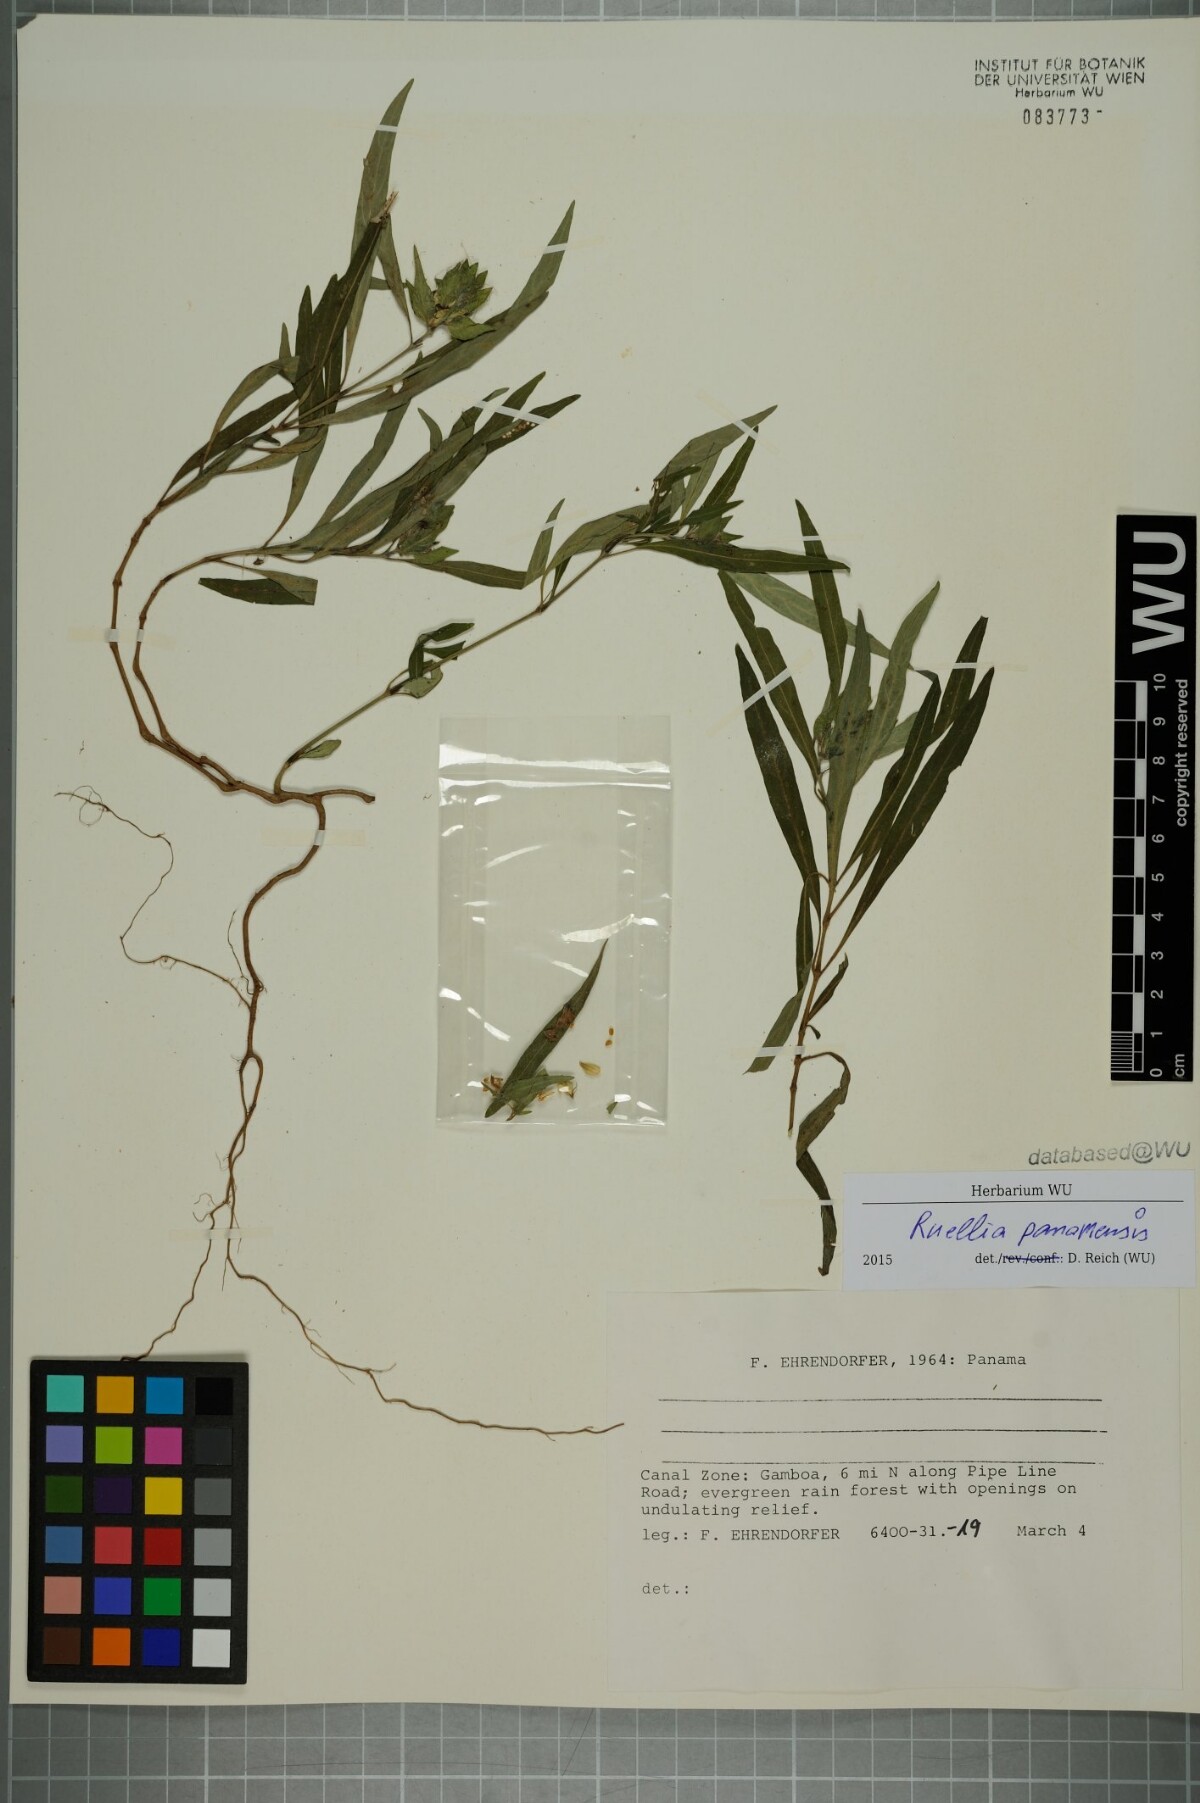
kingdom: Plantae
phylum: Tracheophyta
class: Magnoliopsida
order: Lamiales
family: Acanthaceae
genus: Ruellia
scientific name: Ruellia panamensis
